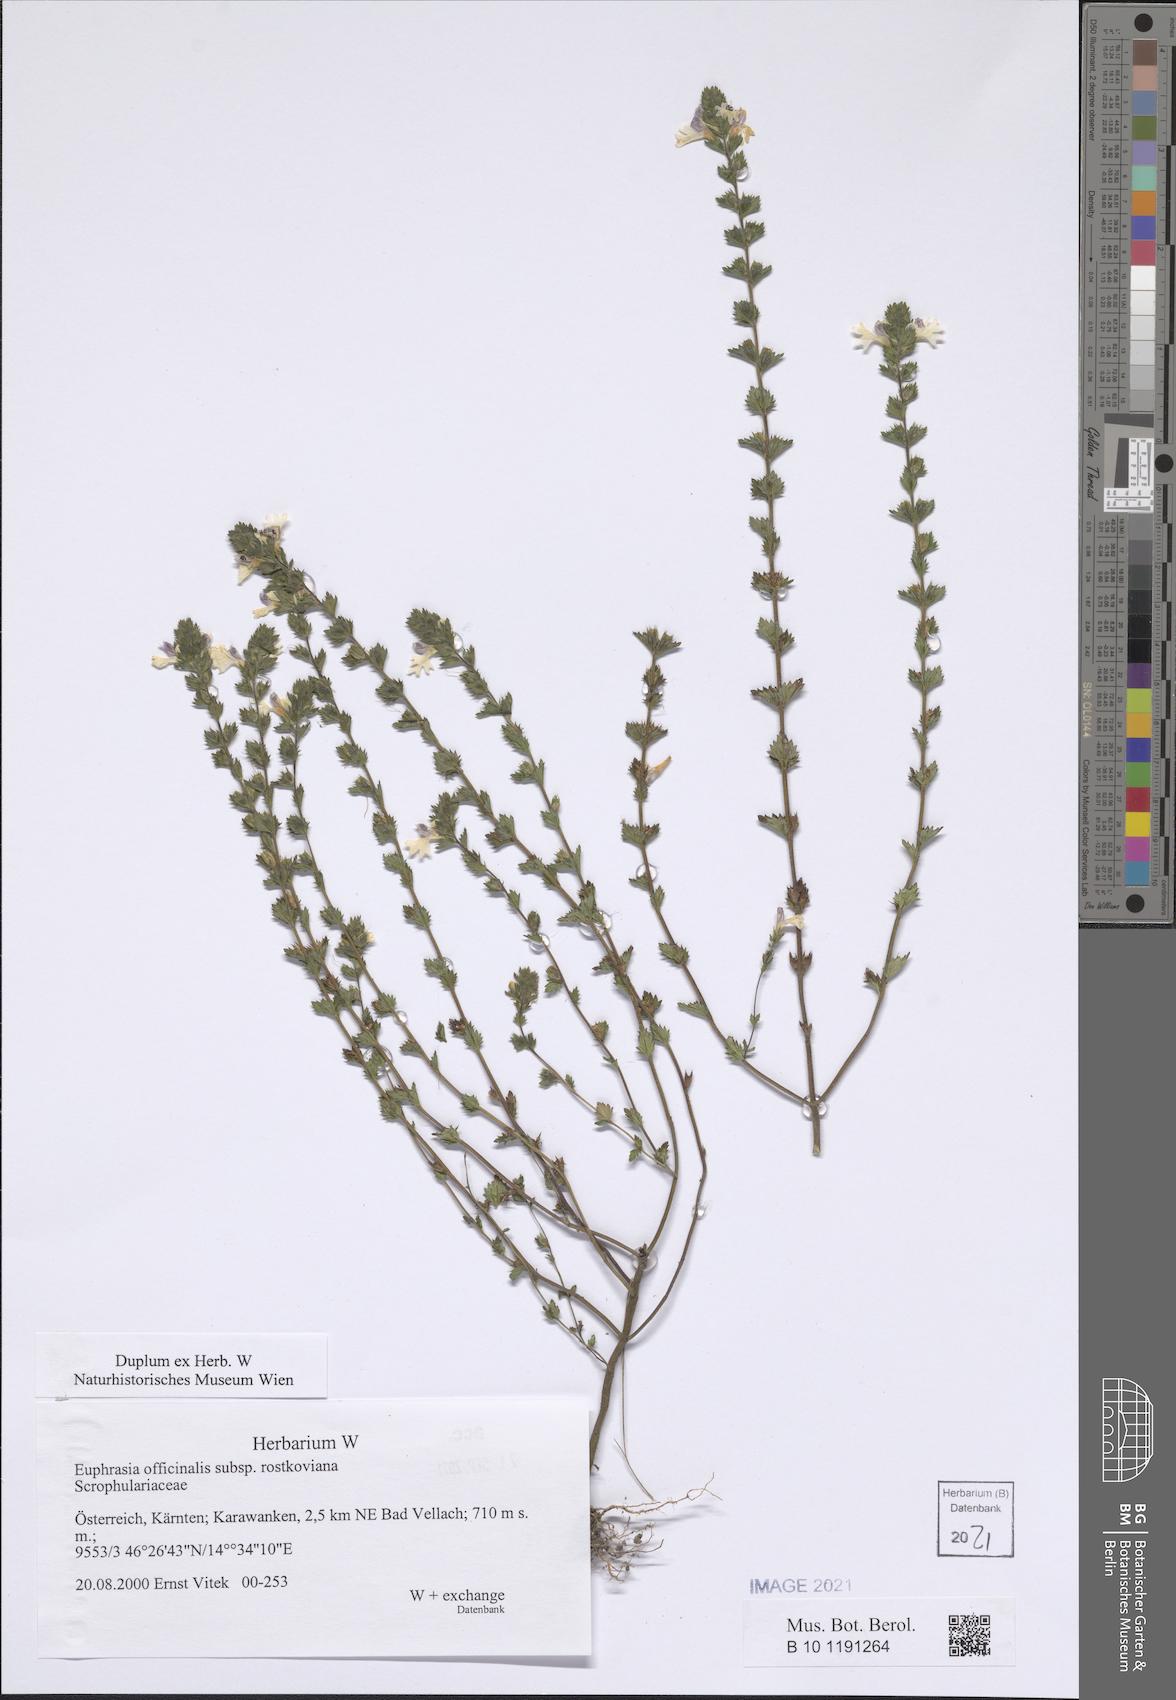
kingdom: Plantae
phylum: Tracheophyta
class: Magnoliopsida
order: Lamiales
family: Orobanchaceae
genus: Euphrasia
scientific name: Euphrasia officinalis
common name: Eyebright
